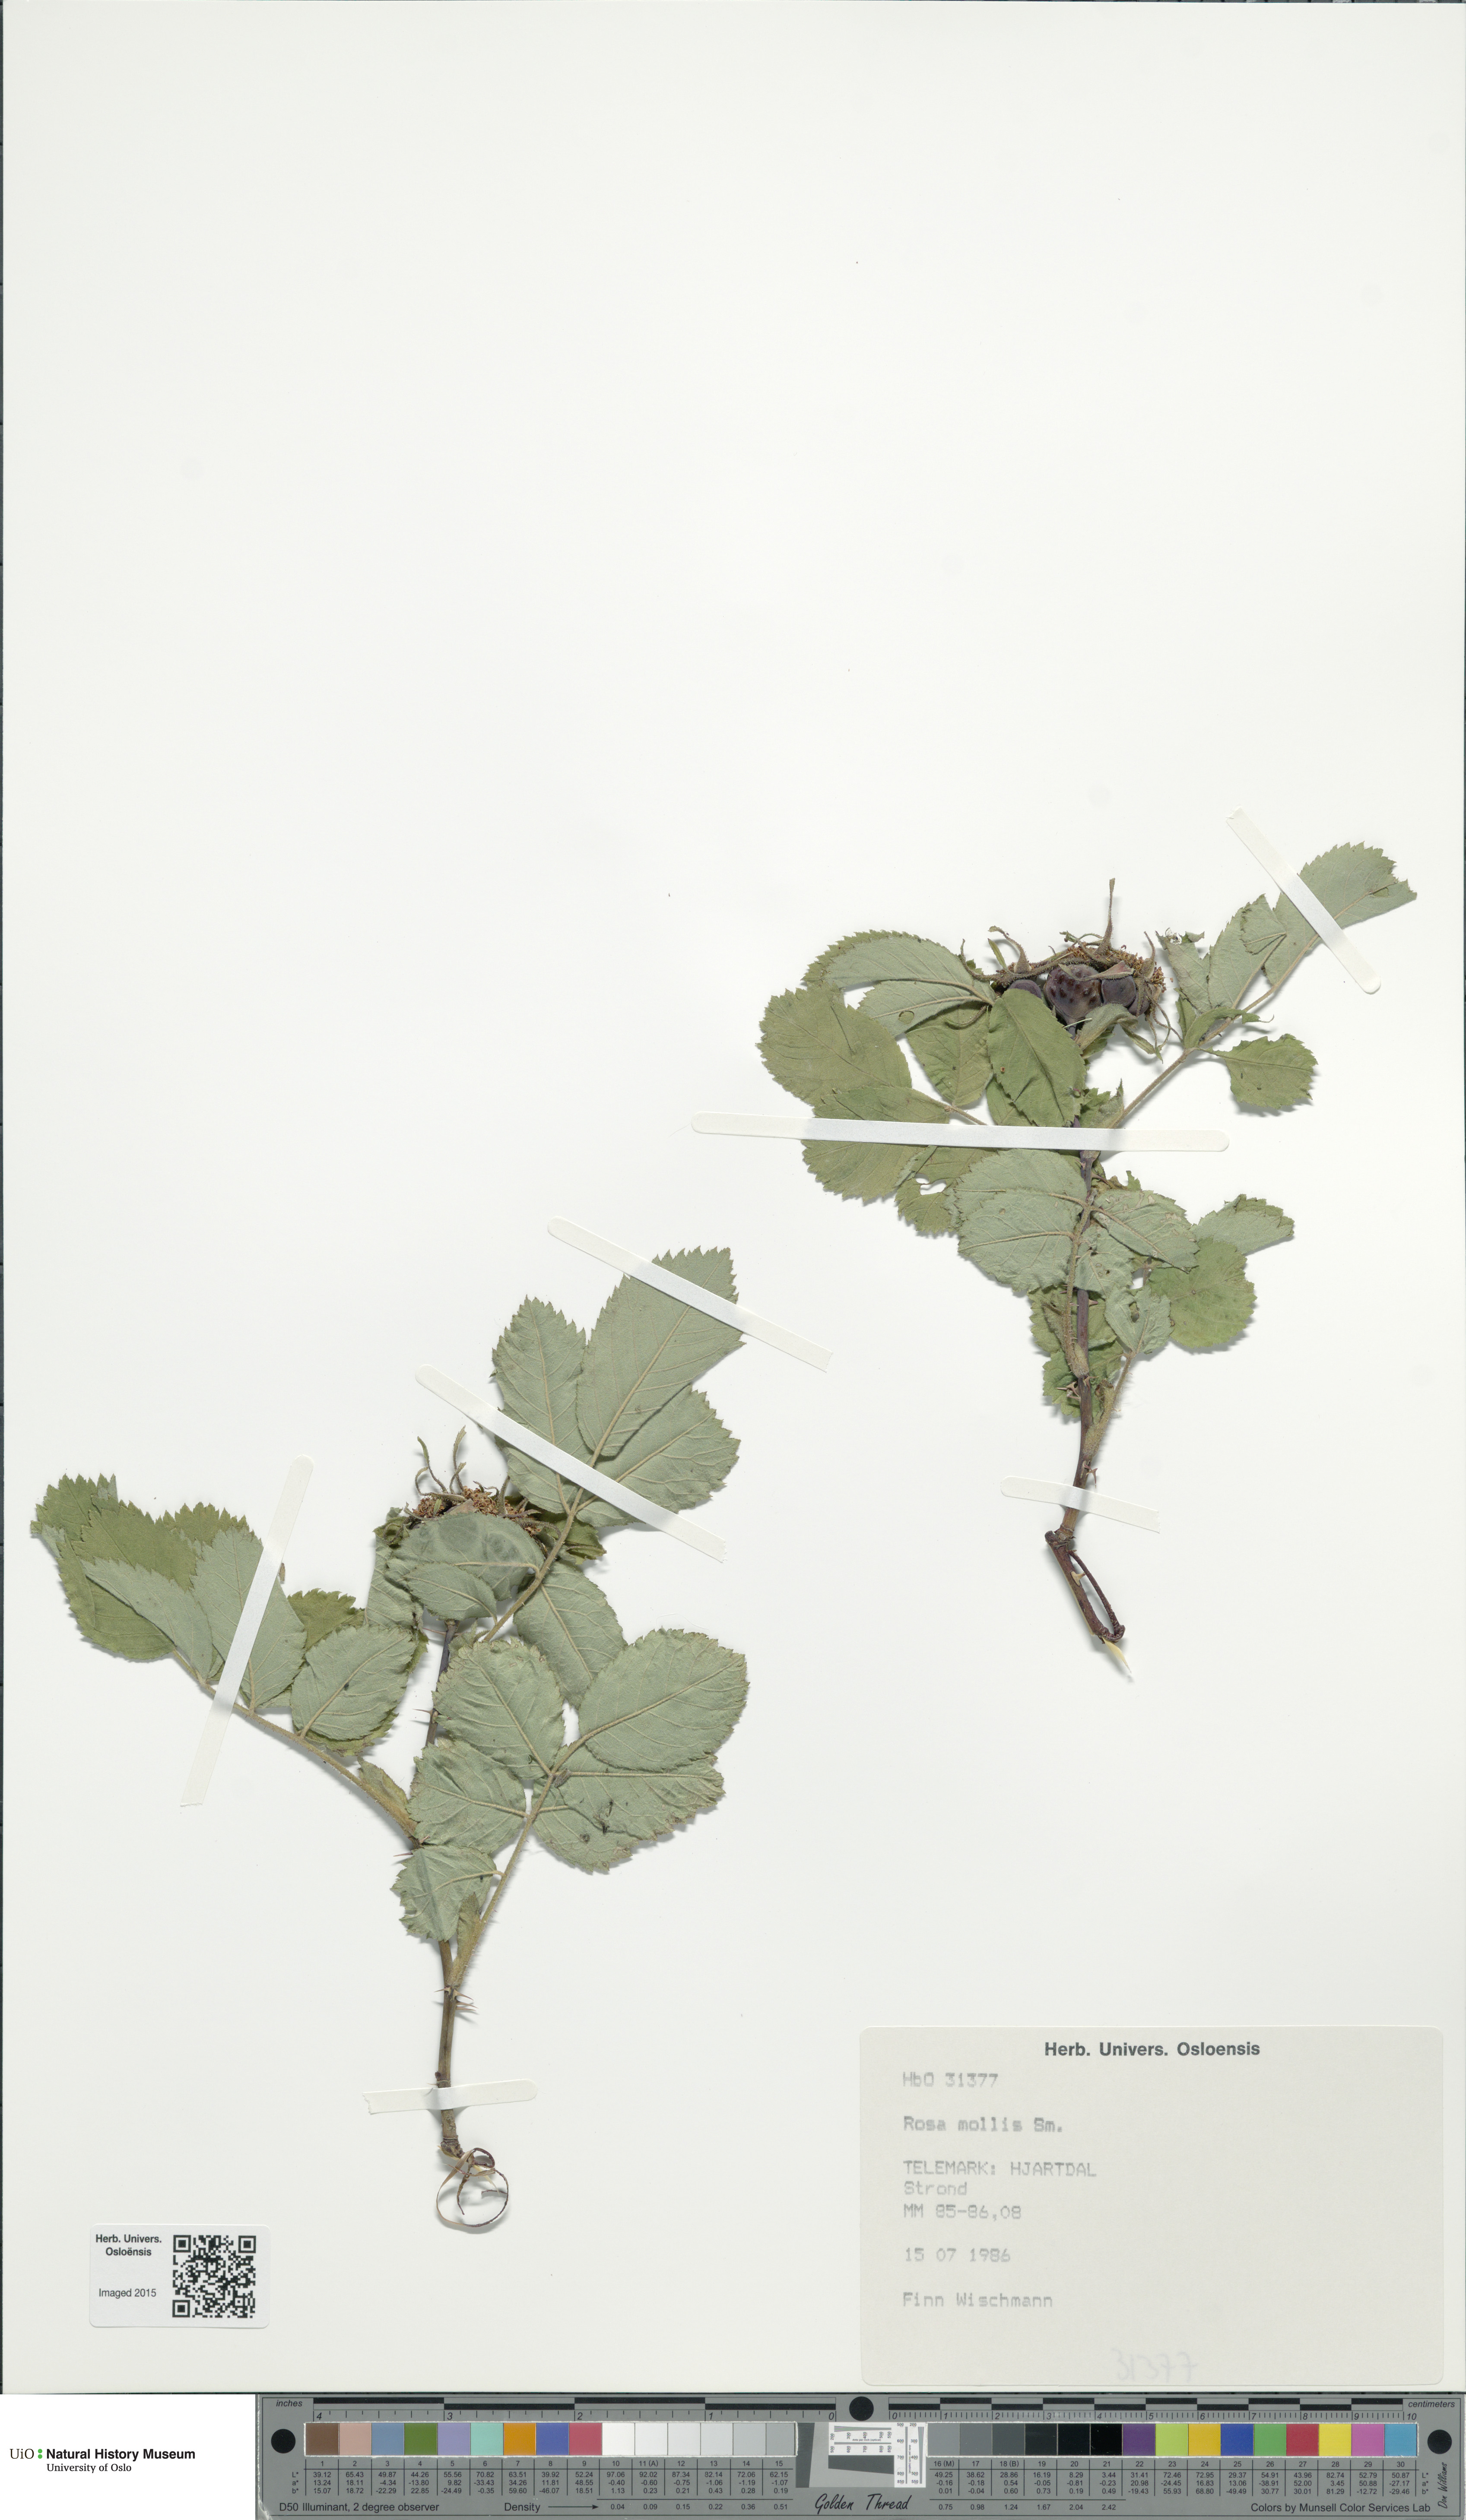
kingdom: Plantae
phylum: Tracheophyta
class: Magnoliopsida
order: Rosales
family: Rosaceae
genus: Rosa
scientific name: Rosa mollis
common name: Rose
